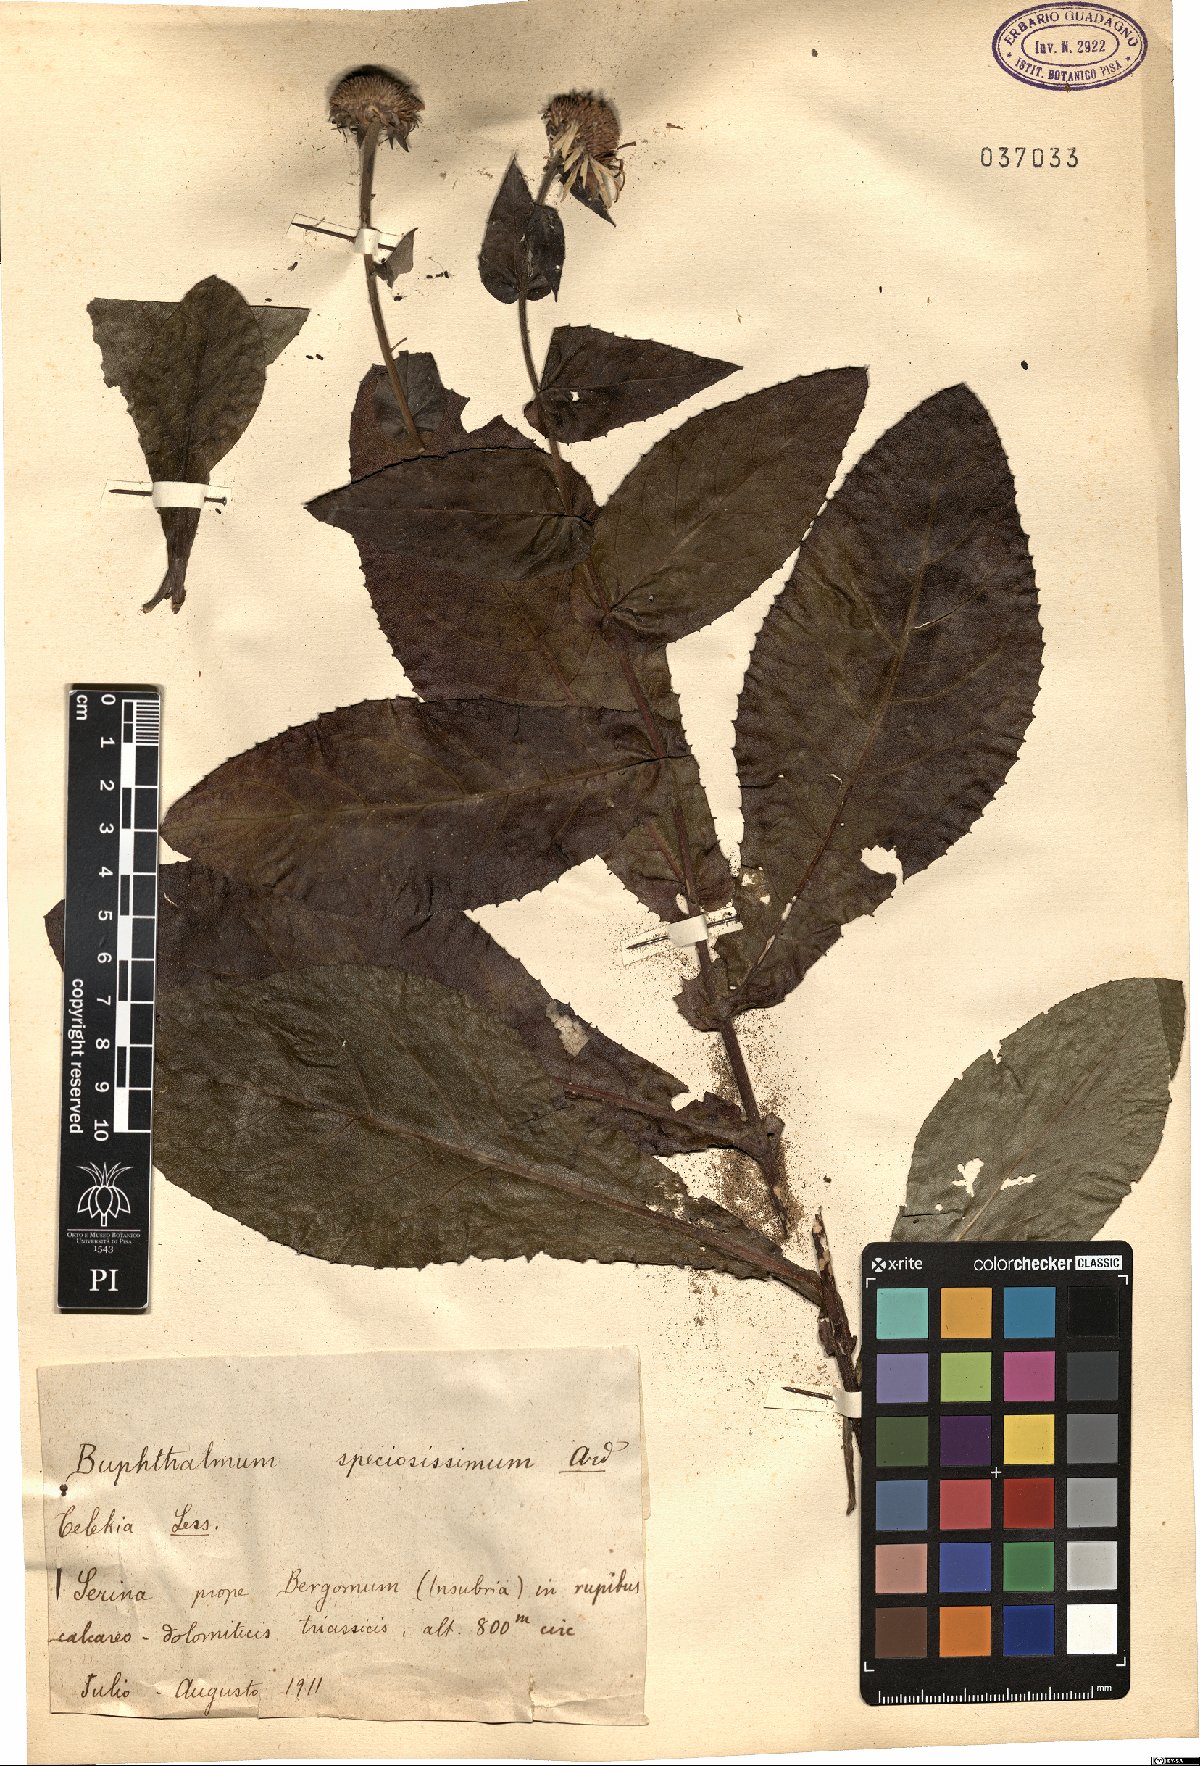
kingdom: Plantae
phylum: Tracheophyta
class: Magnoliopsida
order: Asterales
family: Asteraceae
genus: Buphthalmum
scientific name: Buphthalmum speciosissimum
